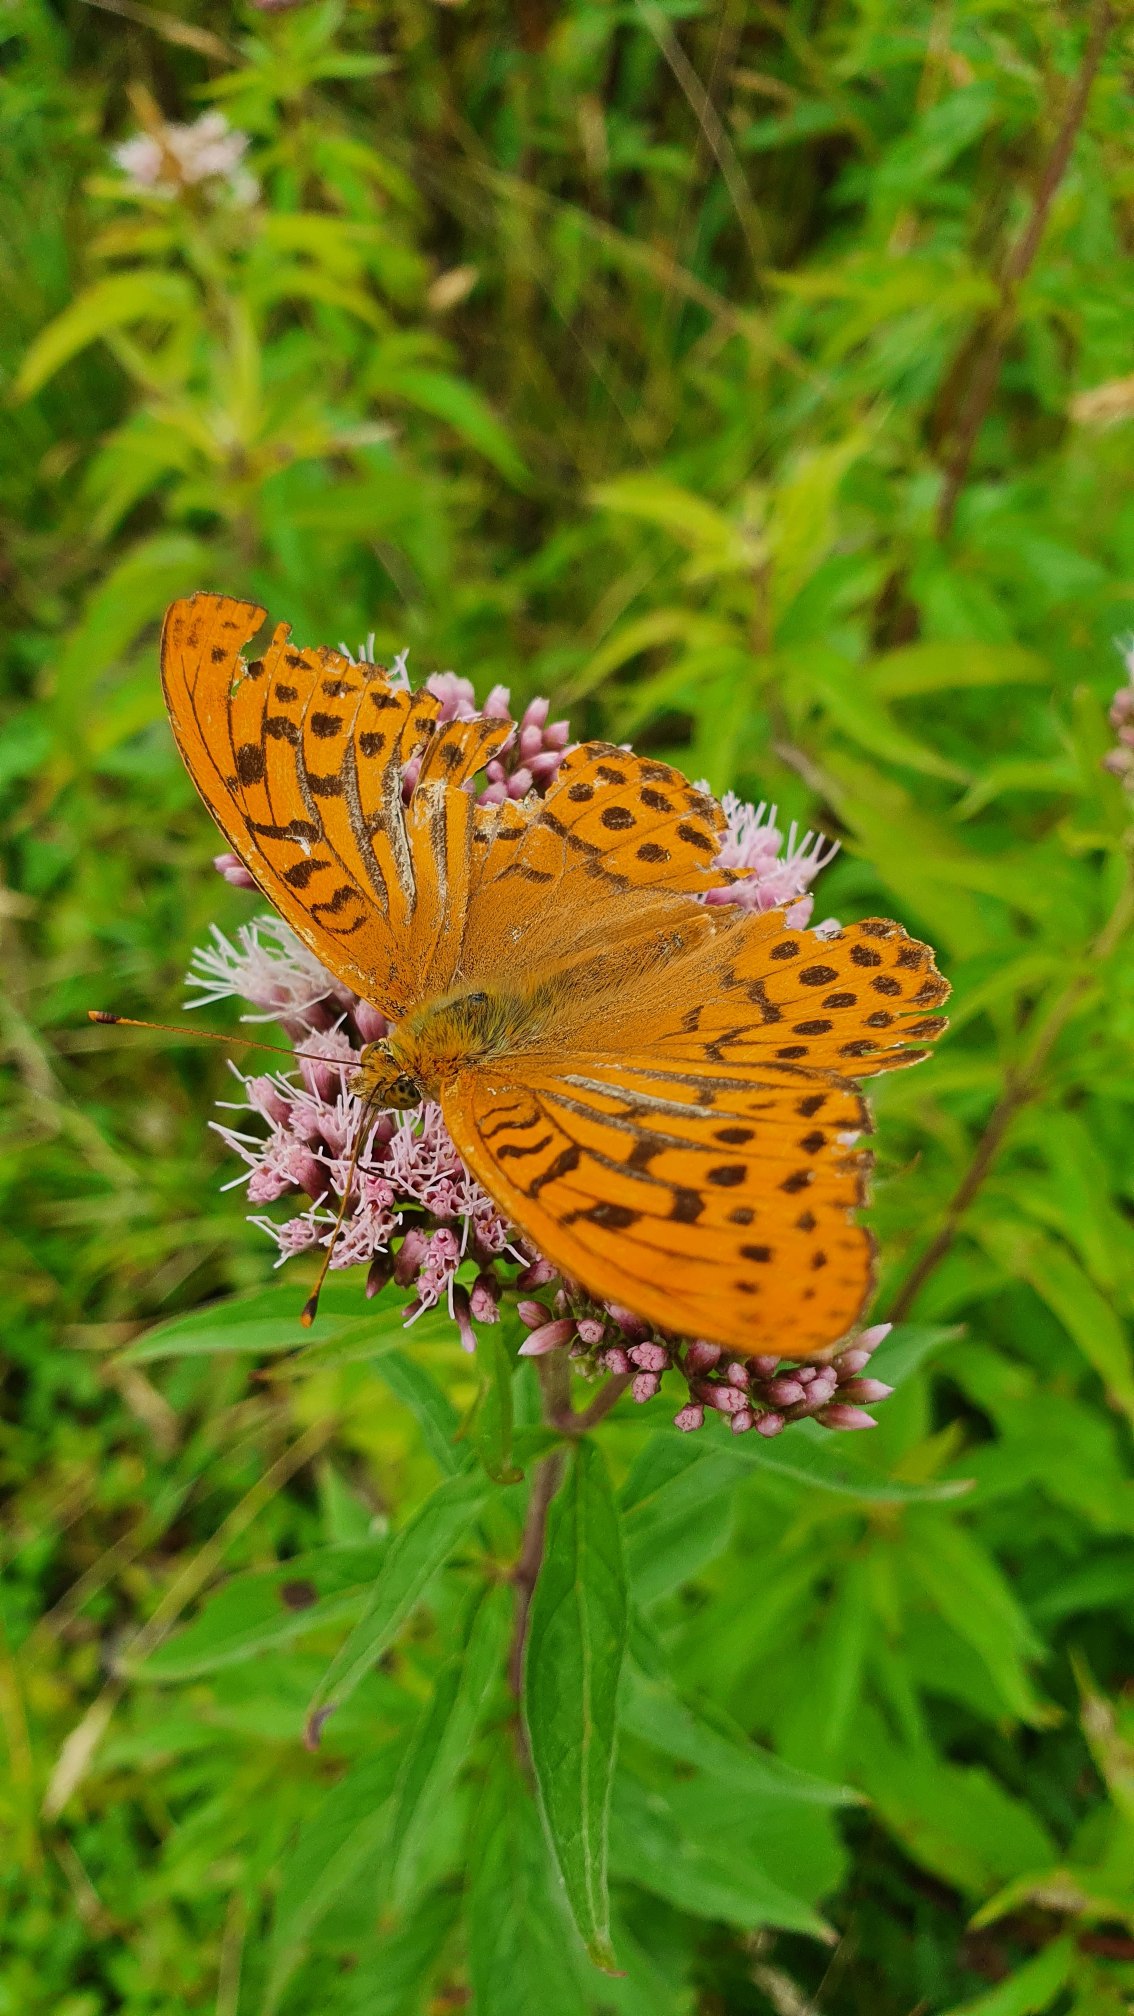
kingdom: Animalia
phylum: Arthropoda
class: Insecta
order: Lepidoptera
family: Nymphalidae
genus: Argynnis
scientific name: Argynnis paphia
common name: Kejserkåbe
